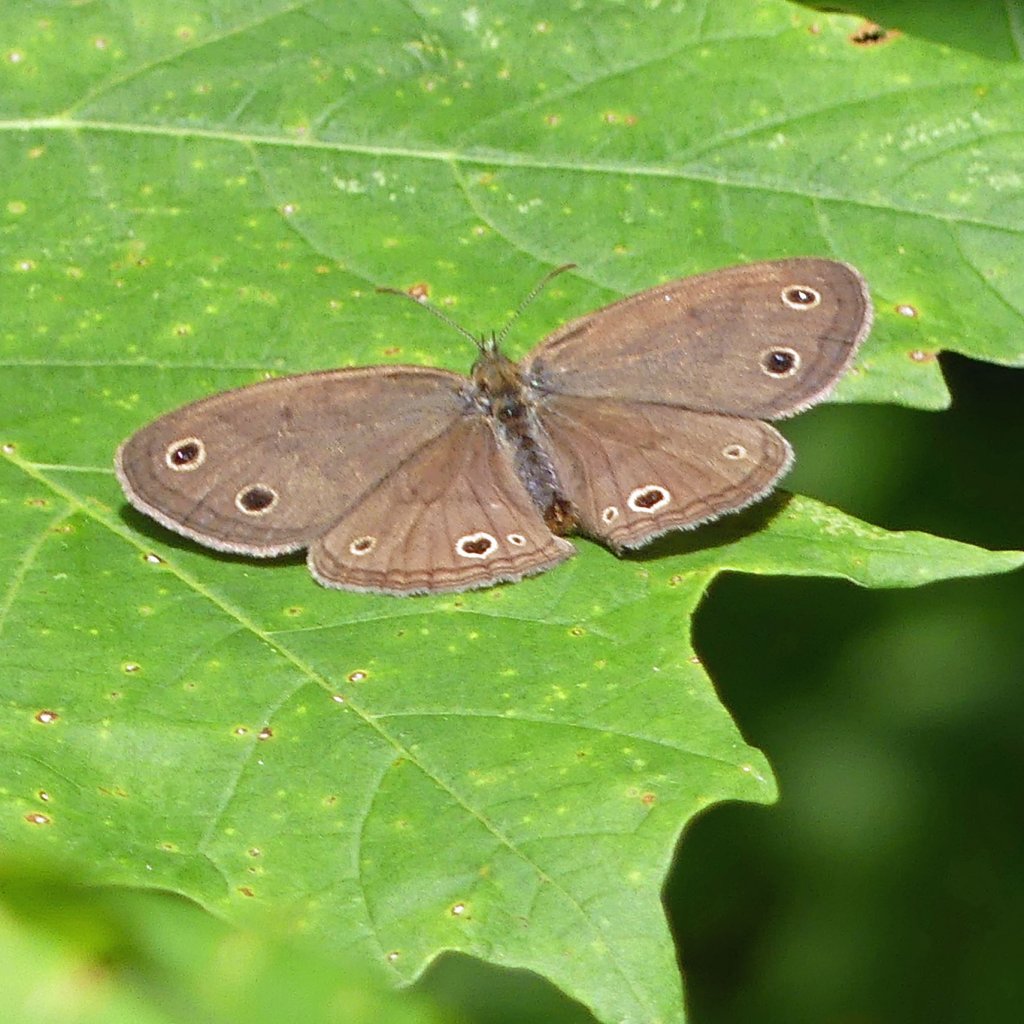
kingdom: Animalia
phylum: Arthropoda
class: Insecta
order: Lepidoptera
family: Nymphalidae
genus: Euptychia
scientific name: Euptychia cymela
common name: Little Wood Satyr
